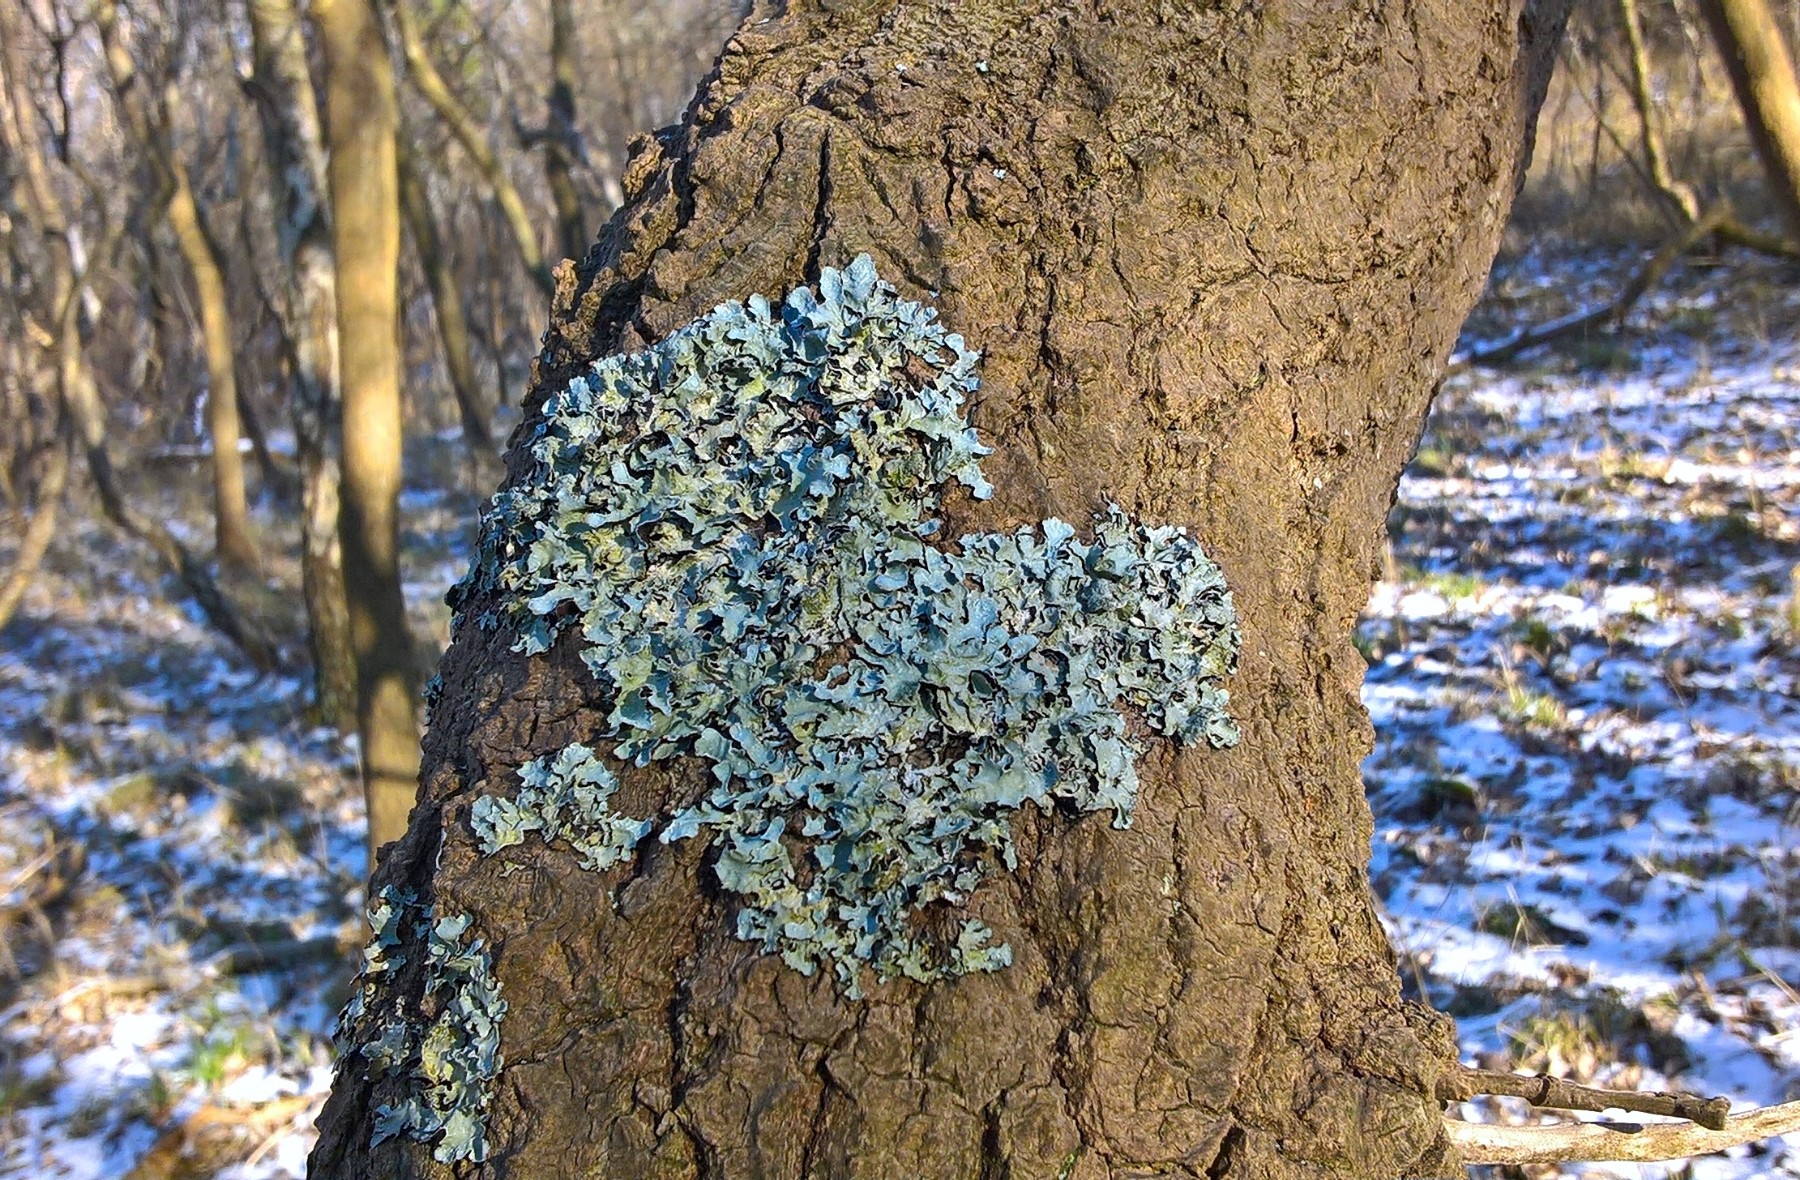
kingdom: Fungi
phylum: Ascomycota
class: Lecanoromycetes
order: Lecanorales
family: Parmeliaceae
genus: Parmelia
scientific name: Parmelia sulcata
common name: rynket skållav
